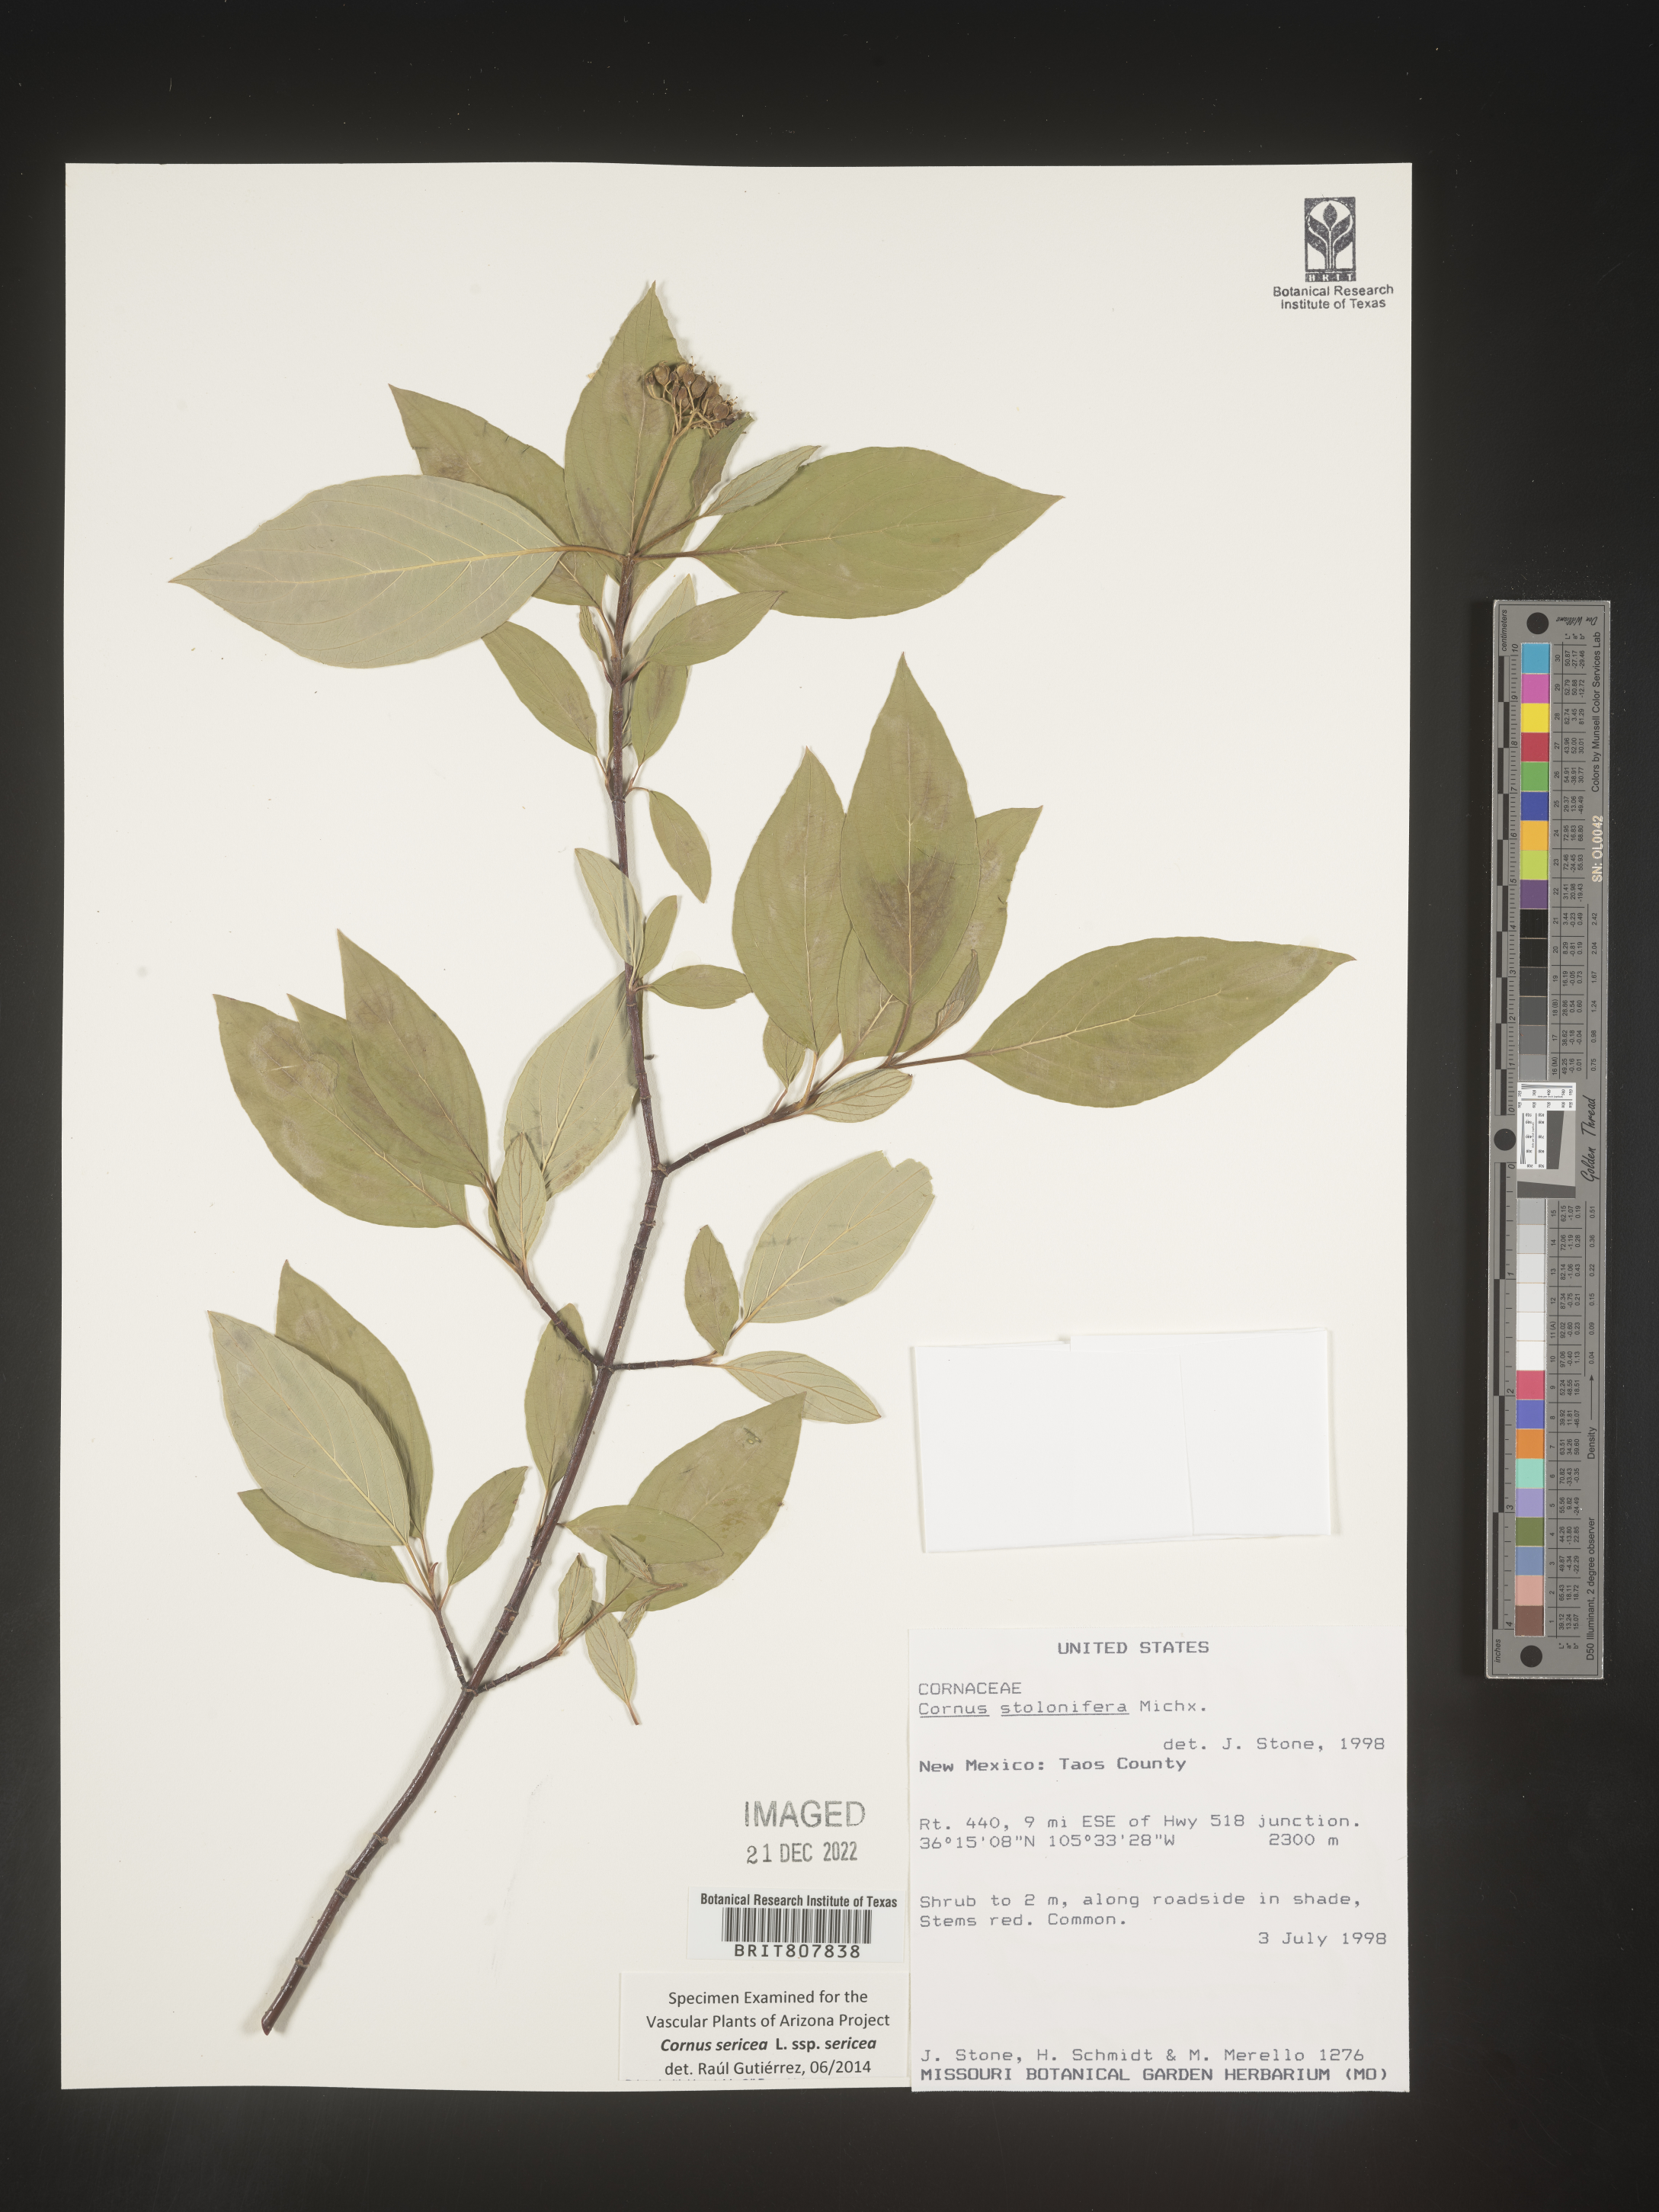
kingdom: Plantae
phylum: Tracheophyta
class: Magnoliopsida
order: Cornales
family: Cornaceae
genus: Cornus
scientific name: Cornus
